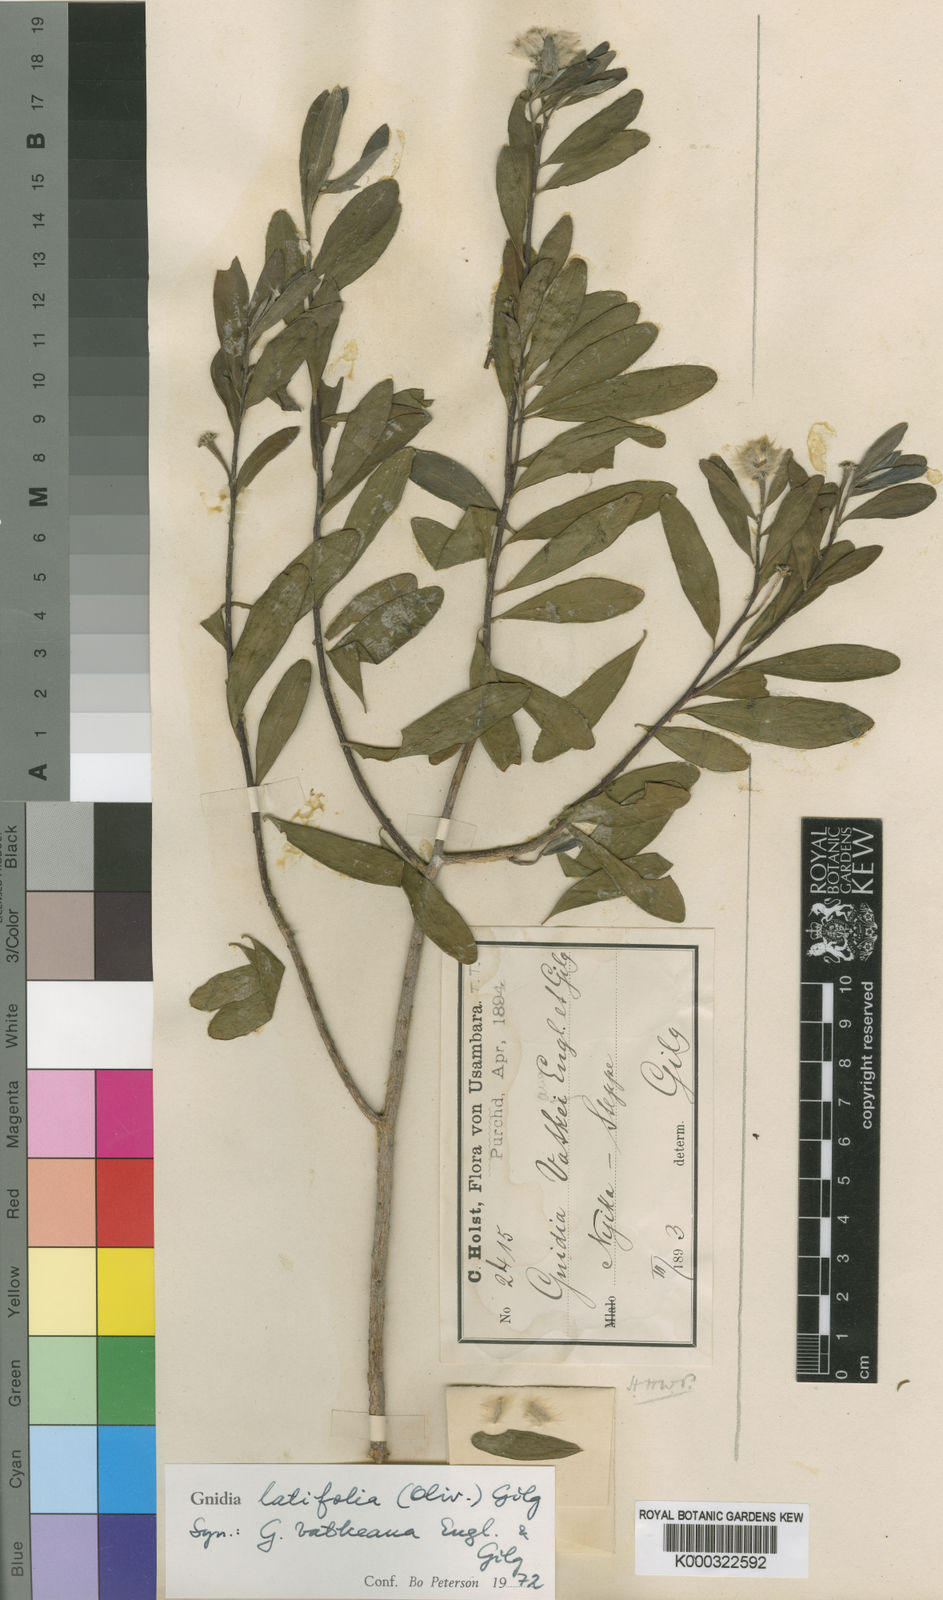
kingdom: Plantae
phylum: Tracheophyta
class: Magnoliopsida
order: Malvales
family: Thymelaeaceae
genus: Gnidia
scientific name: Gnidia latifolia
